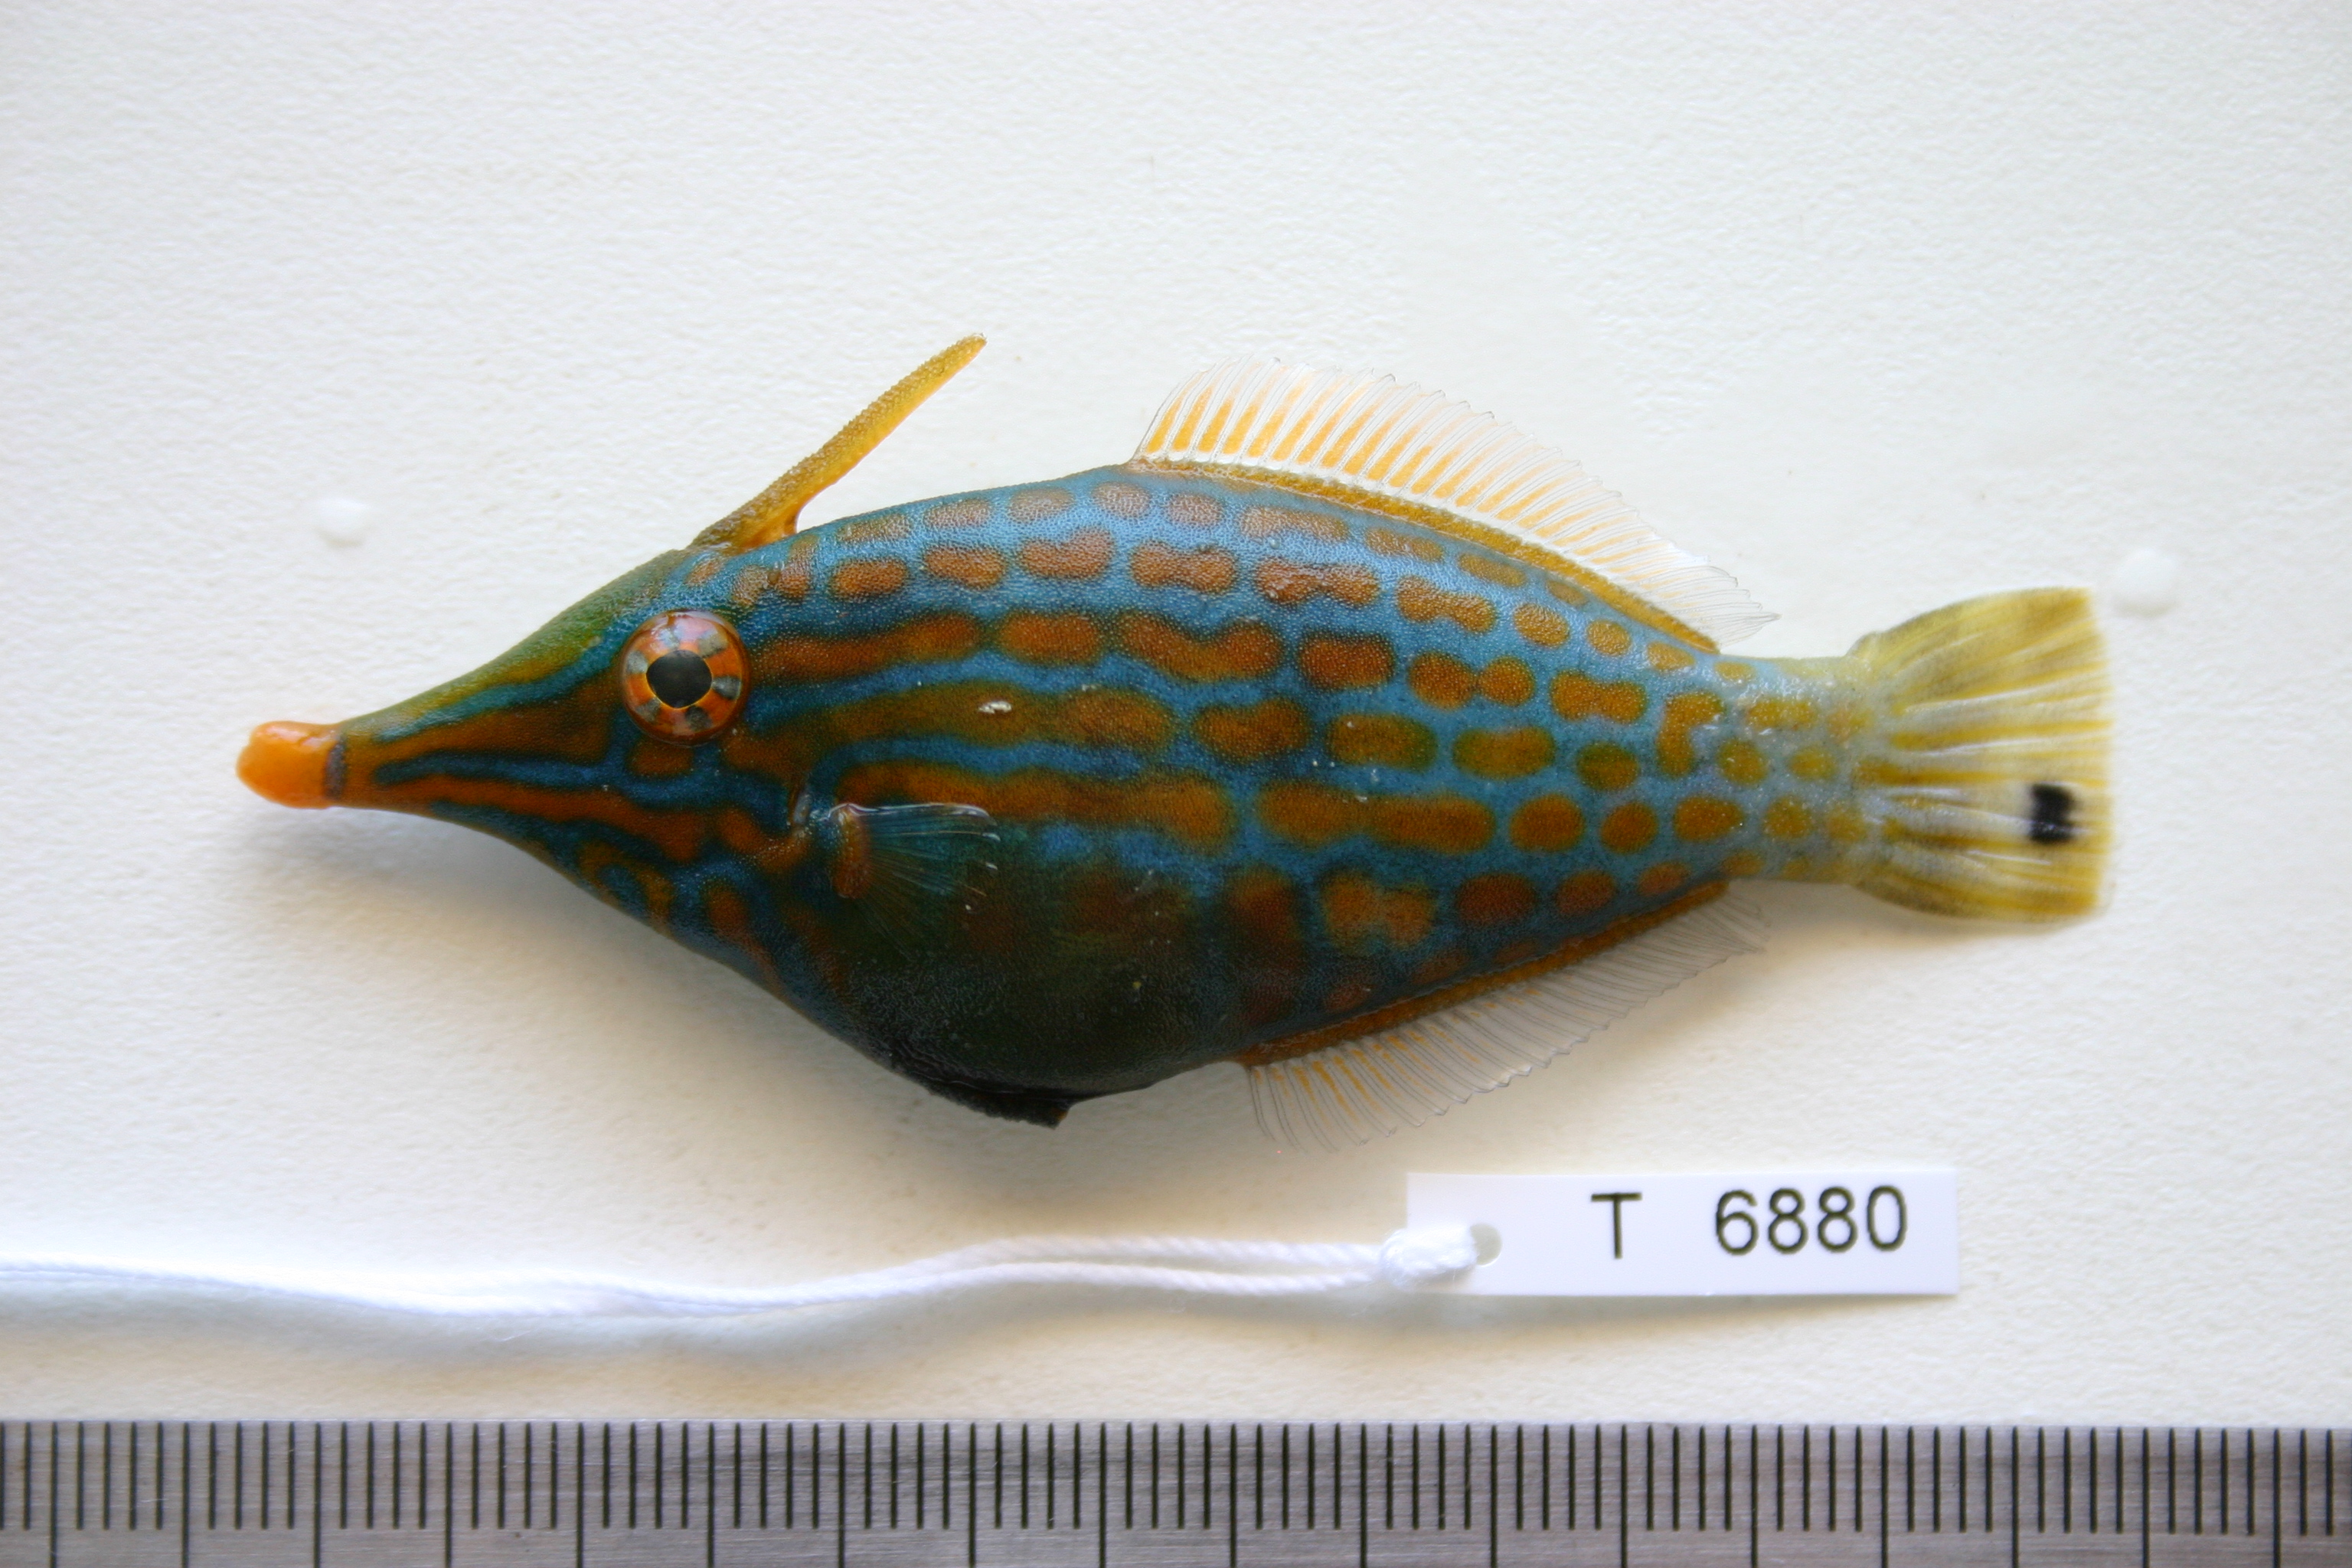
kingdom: Animalia
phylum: Chordata
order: Tetraodontiformes
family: Monacanthidae
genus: Oxymonacanthus
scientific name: Oxymonacanthus longirostris
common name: Beaked leatherjacket
